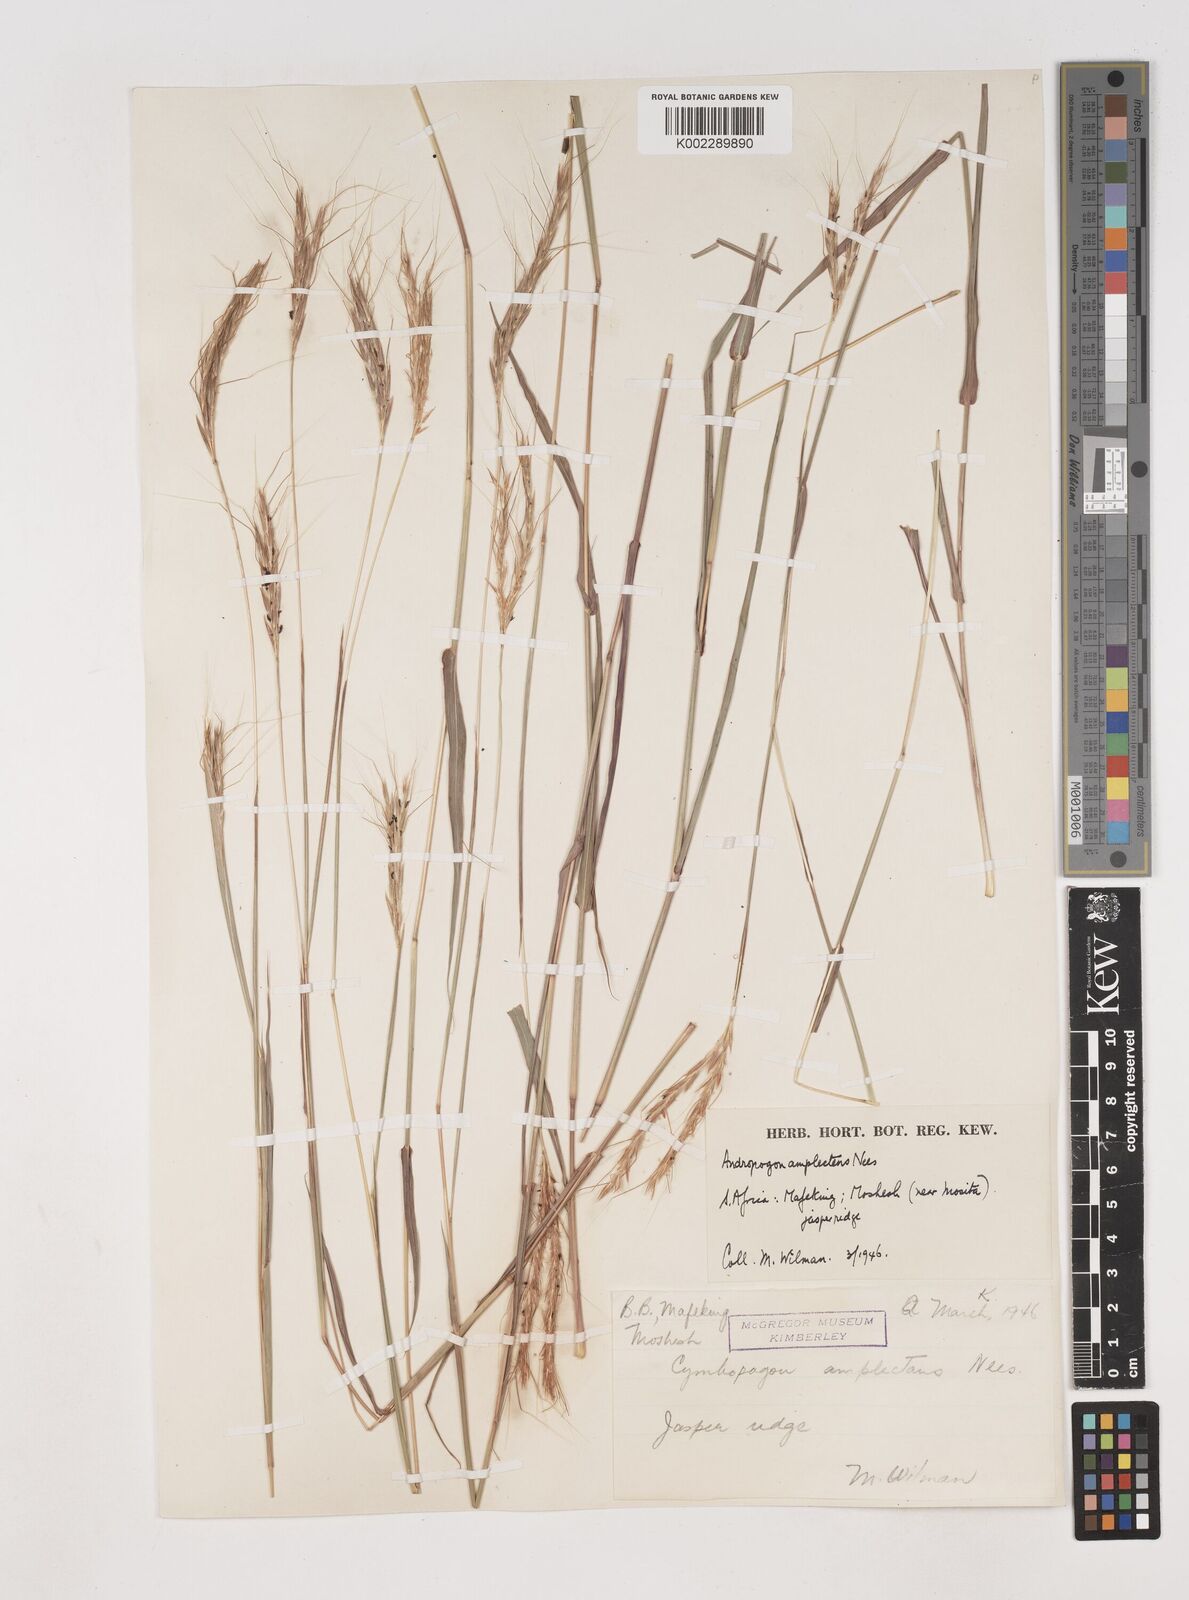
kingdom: Plantae
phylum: Tracheophyta
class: Liliopsida
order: Poales
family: Poaceae
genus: Diheteropogon
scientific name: Diheteropogon amplectens
